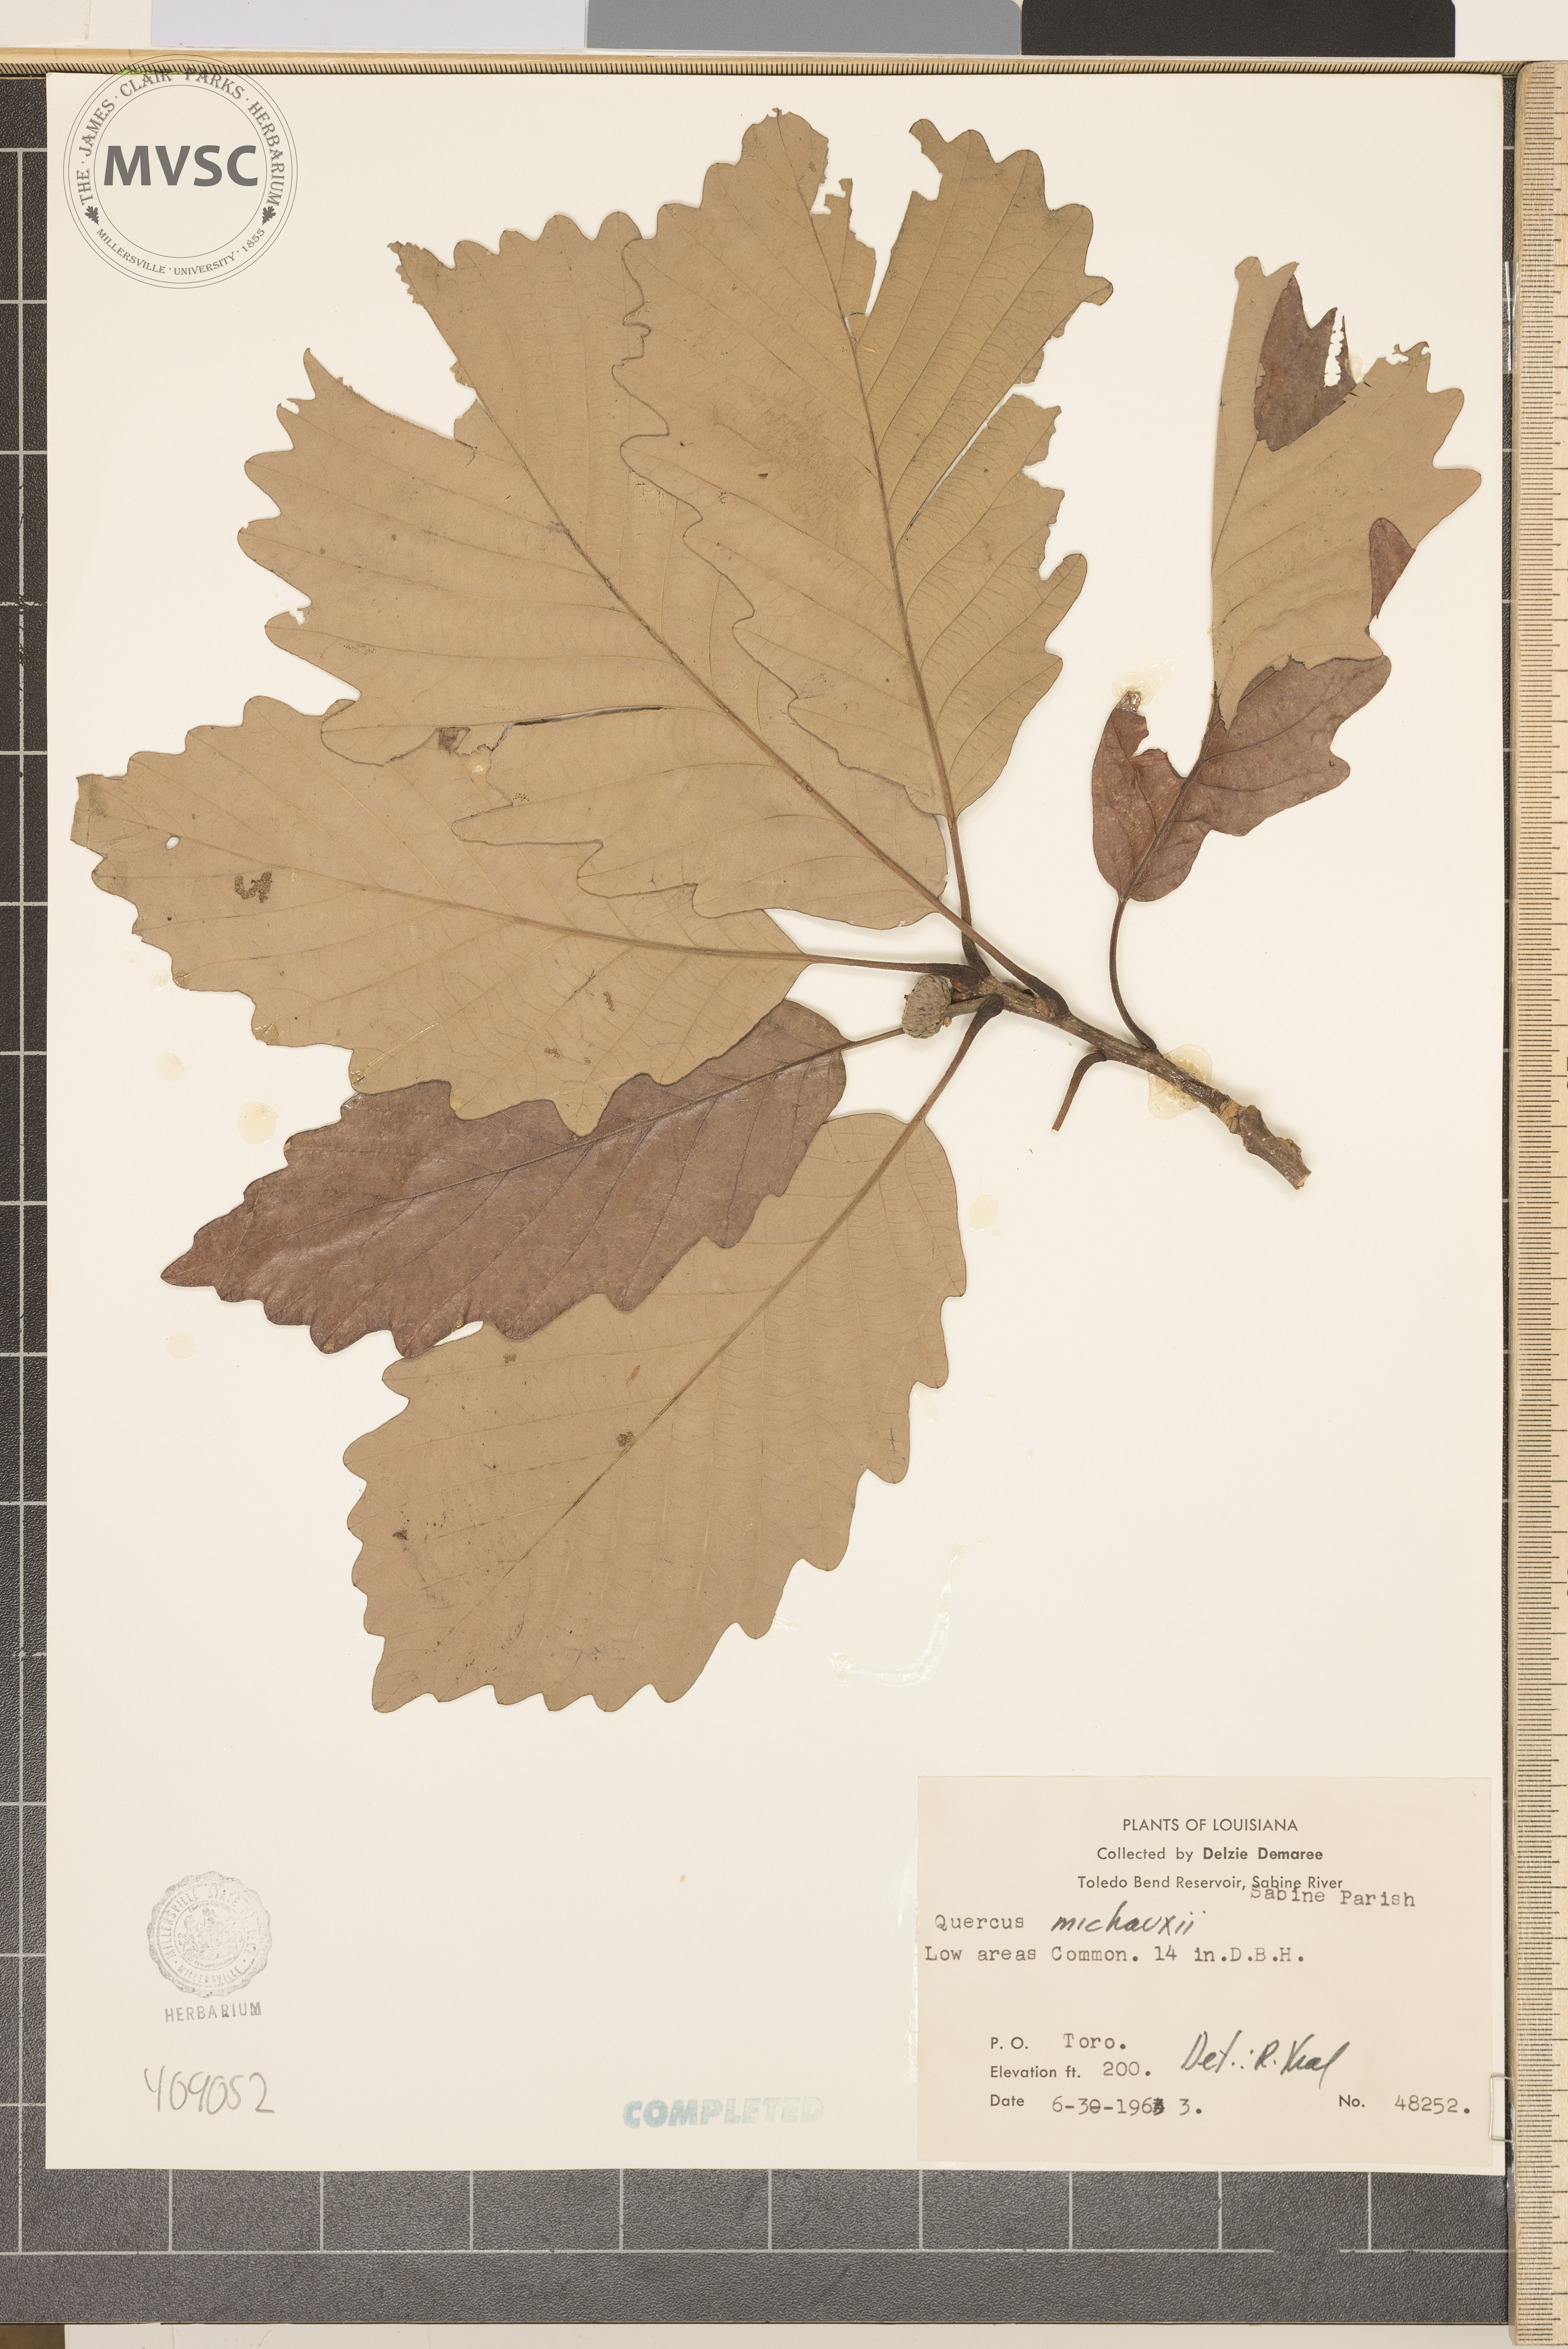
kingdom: Plantae
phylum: Tracheophyta
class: Magnoliopsida
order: Fagales
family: Fagaceae
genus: Quercus
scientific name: Quercus michauxii
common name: Swamp chestnut oak
